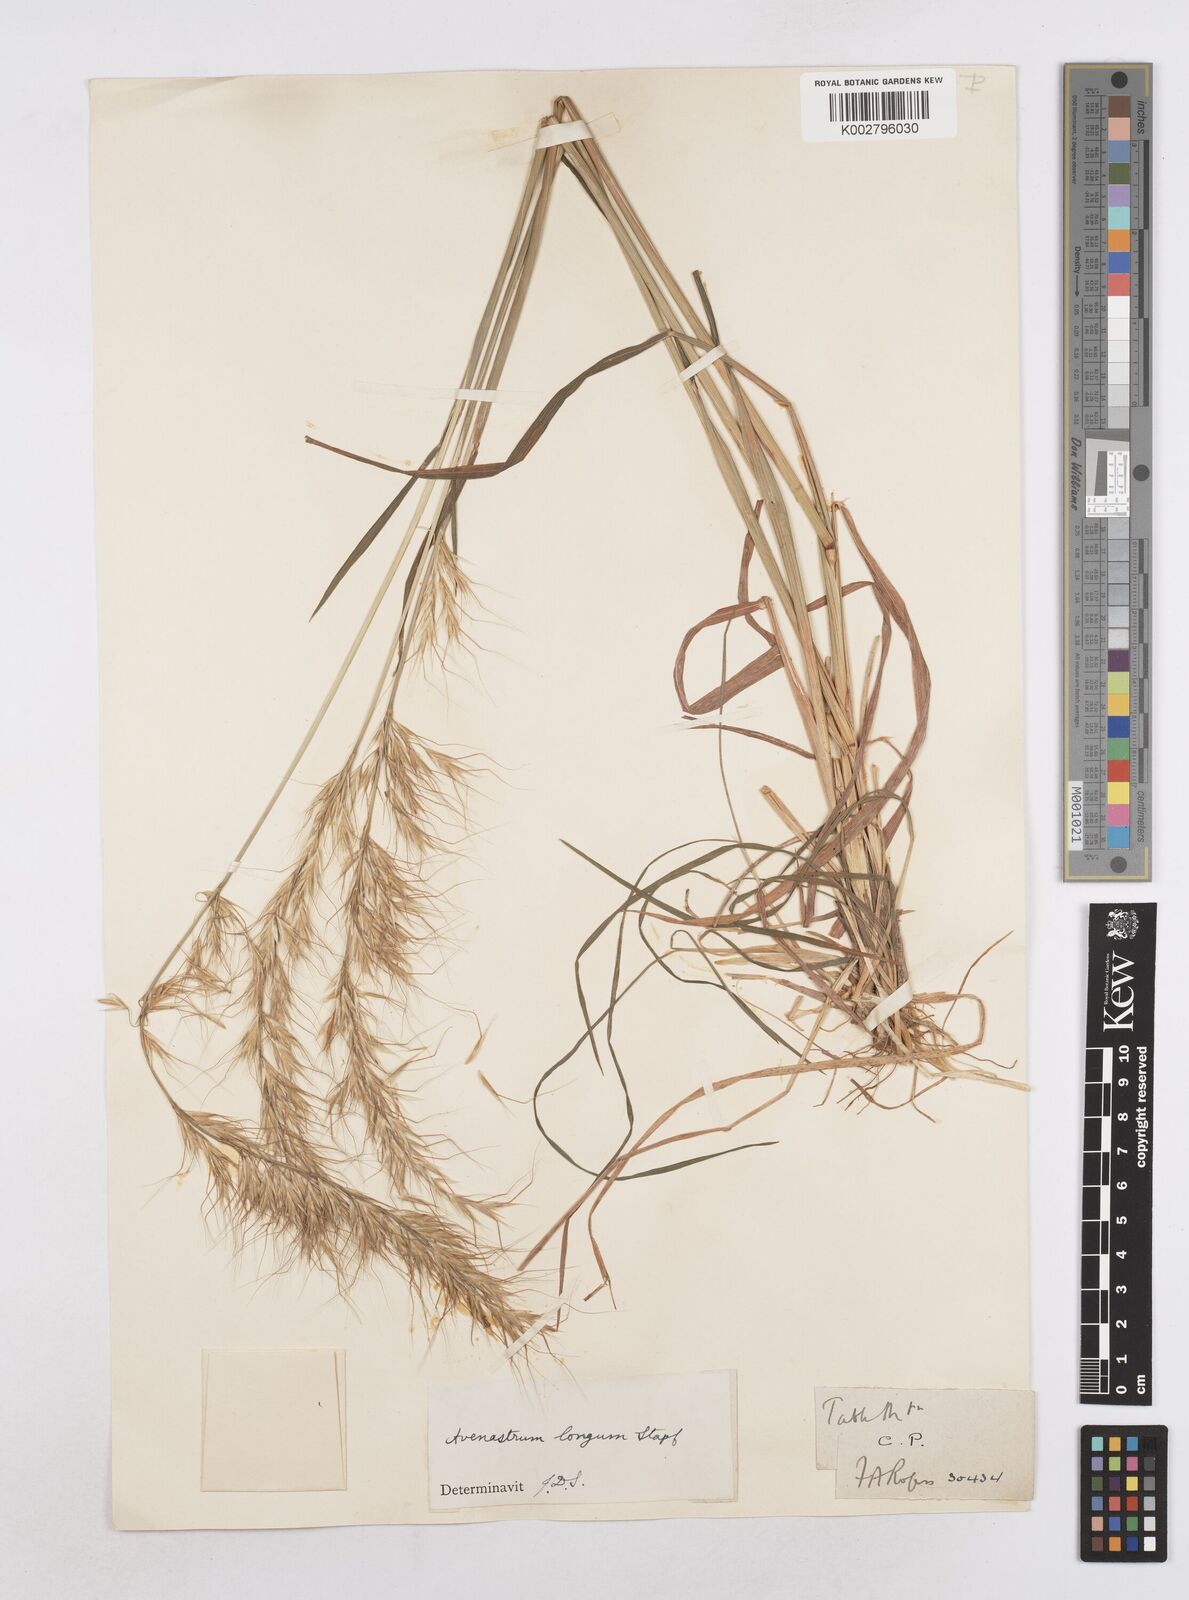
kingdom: Plantae
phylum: Tracheophyta
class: Liliopsida
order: Poales
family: Poaceae
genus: Trisetopsis
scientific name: Trisetopsis longa
